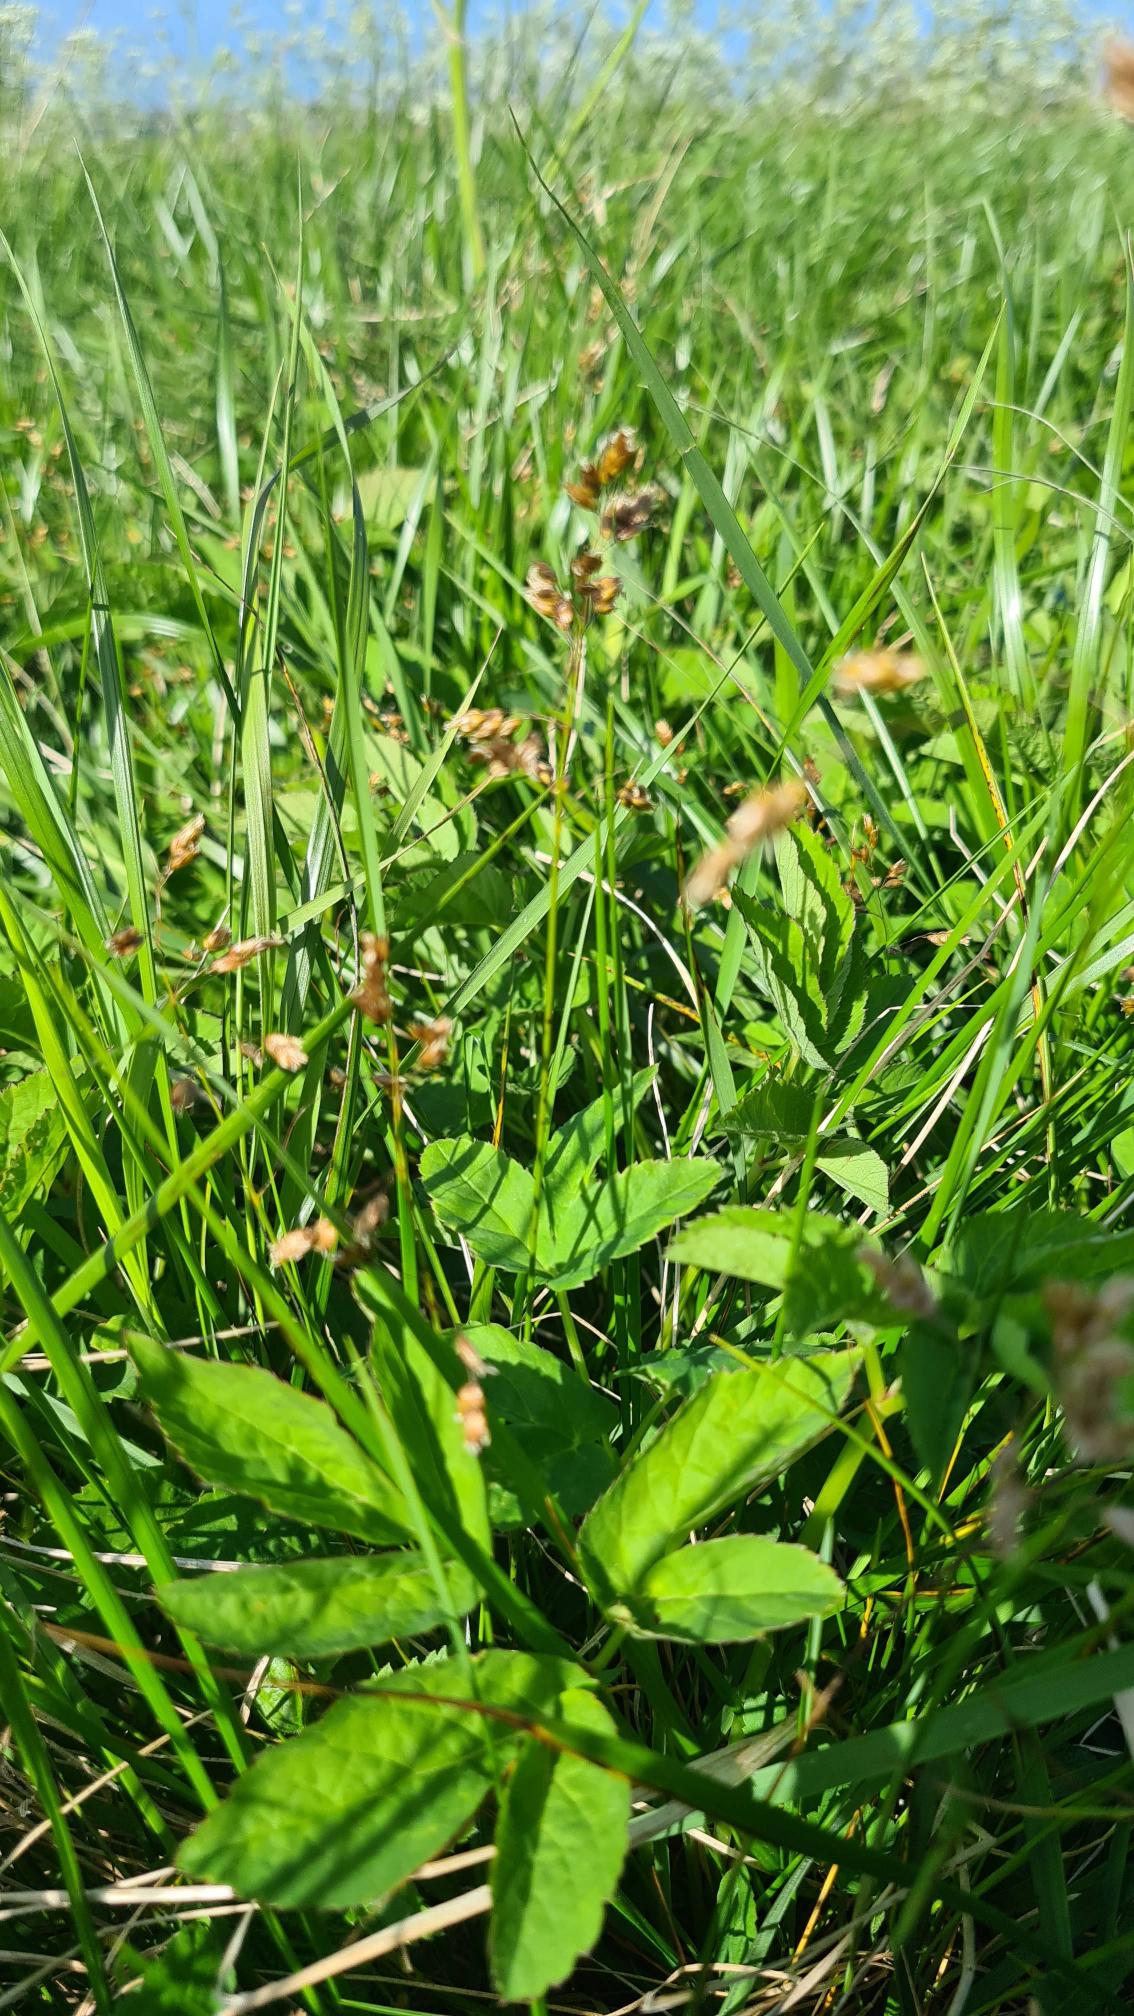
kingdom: Plantae
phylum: Tracheophyta
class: Liliopsida
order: Poales
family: Poaceae
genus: Anthoxanthum
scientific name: Anthoxanthum nitens
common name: Festgræs
